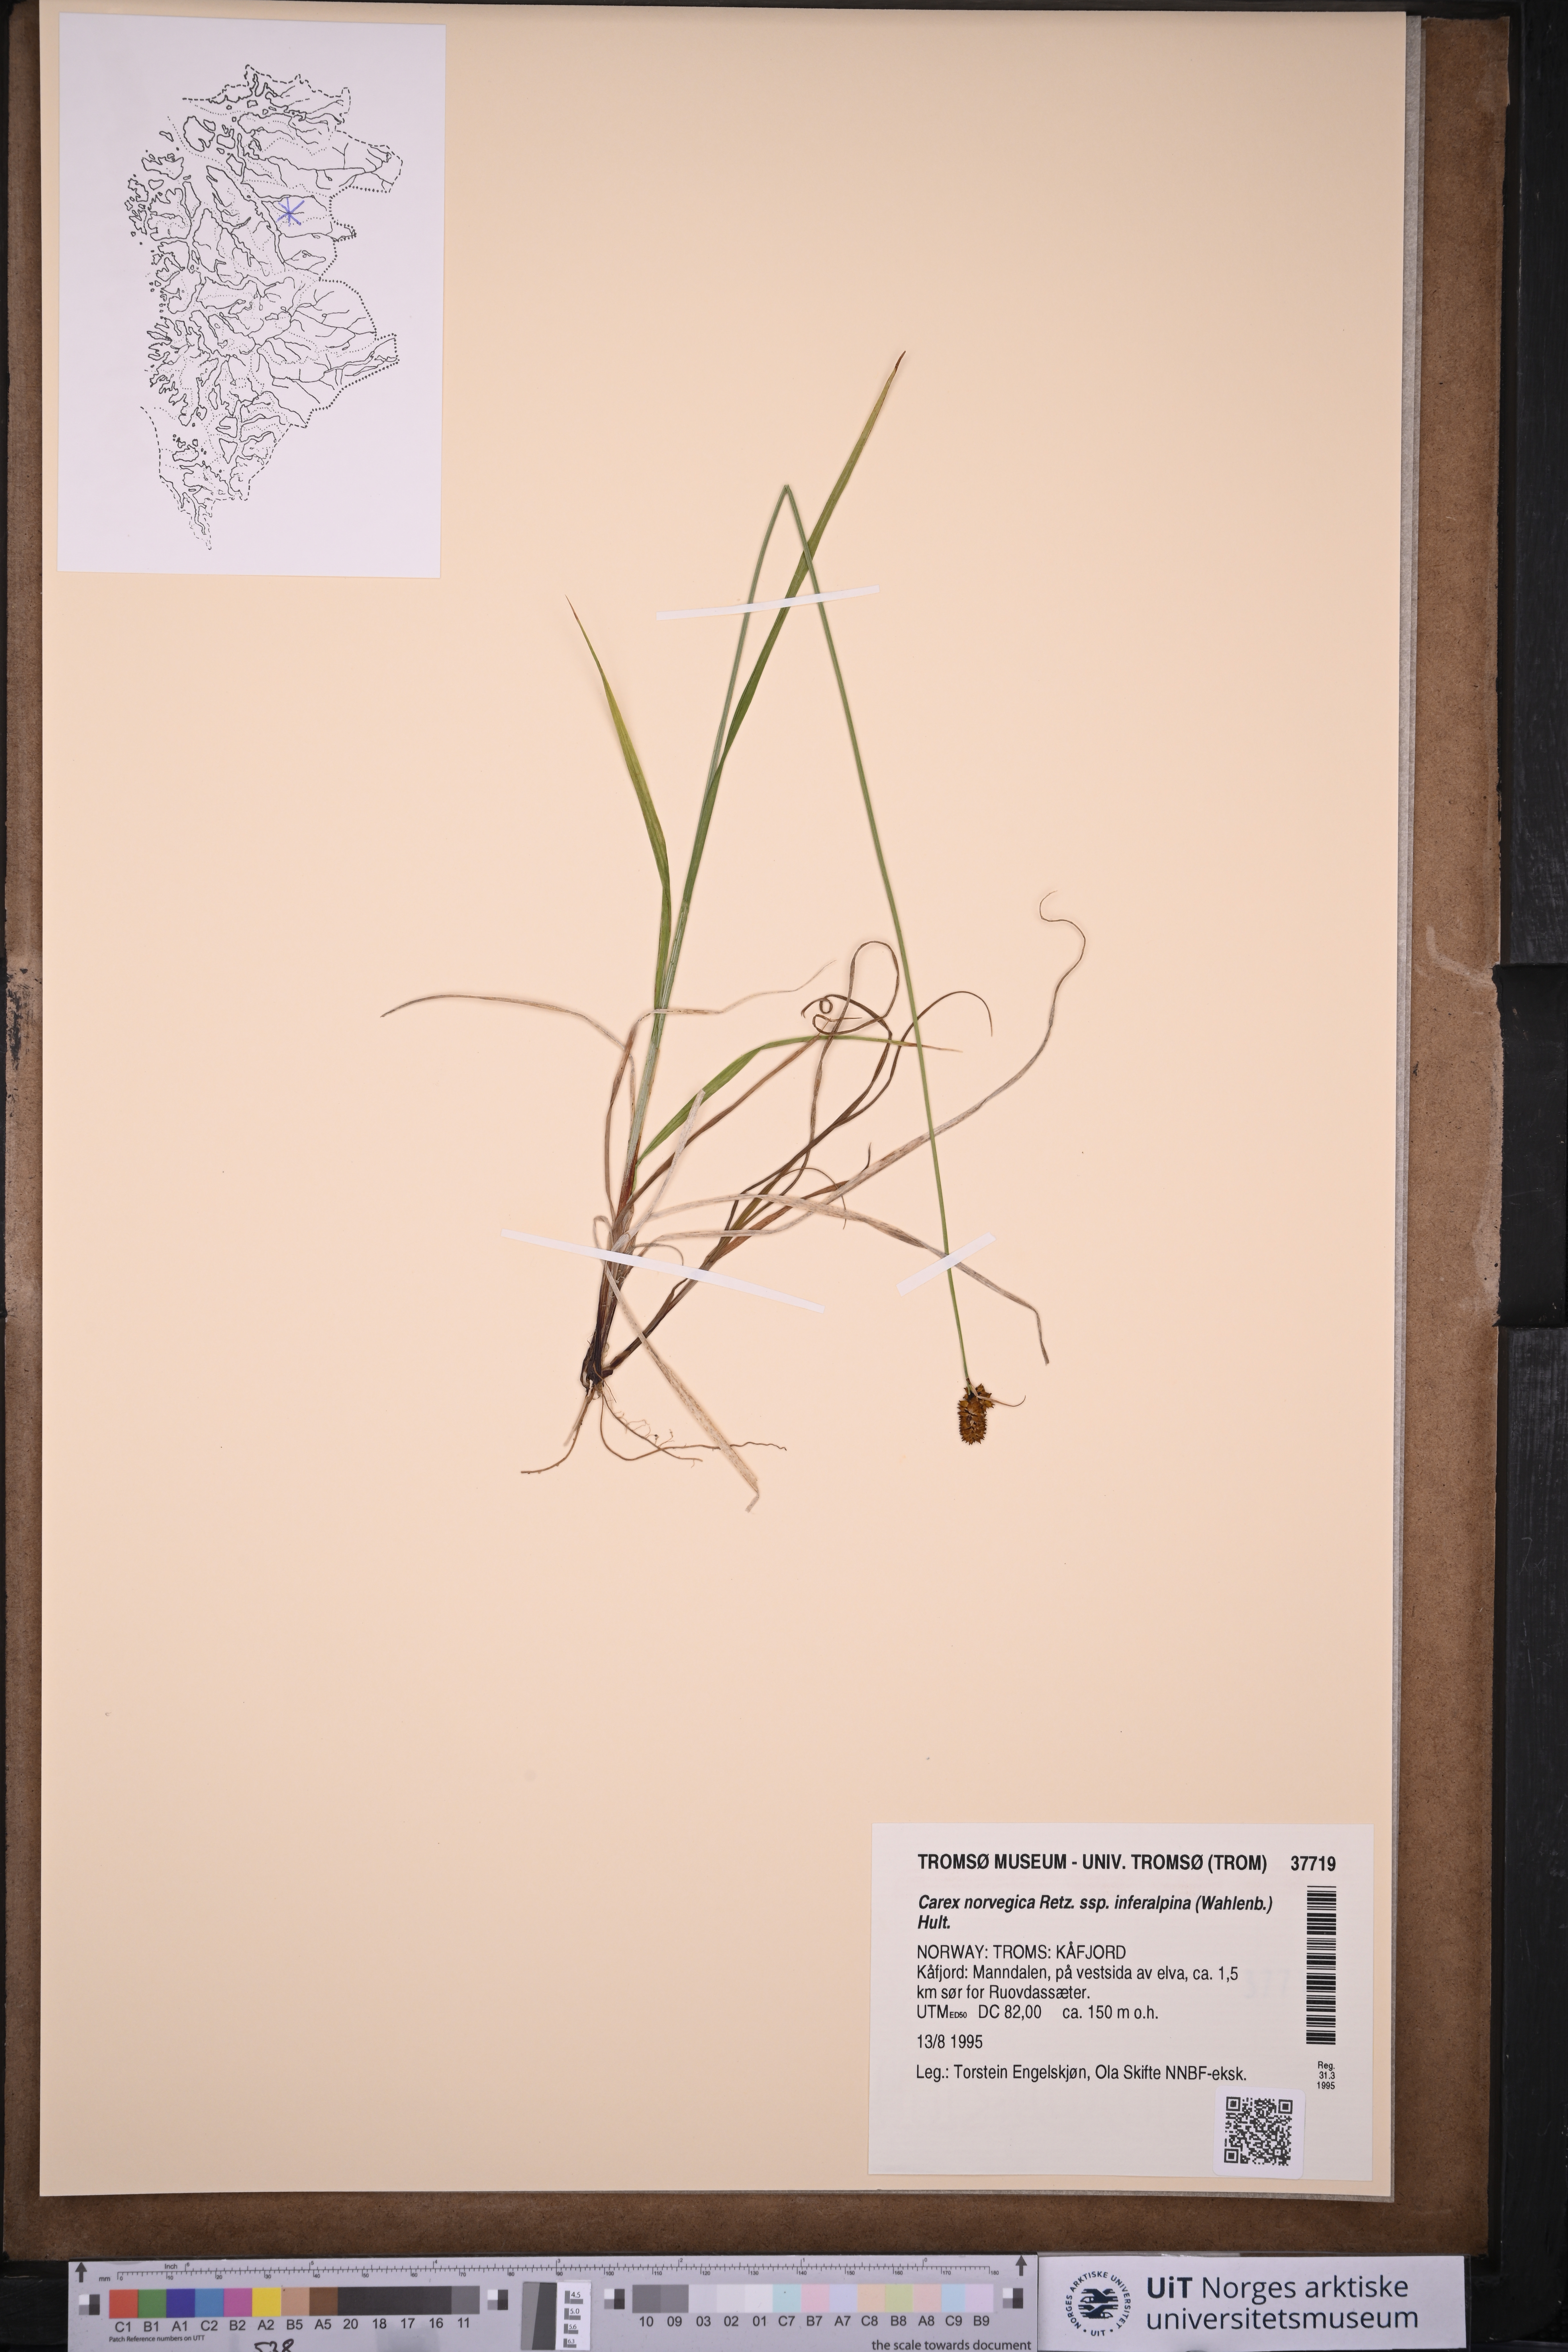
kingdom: Plantae
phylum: Tracheophyta
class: Liliopsida
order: Poales
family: Cyperaceae
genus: Carex
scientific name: Carex media
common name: Alpine sedge
